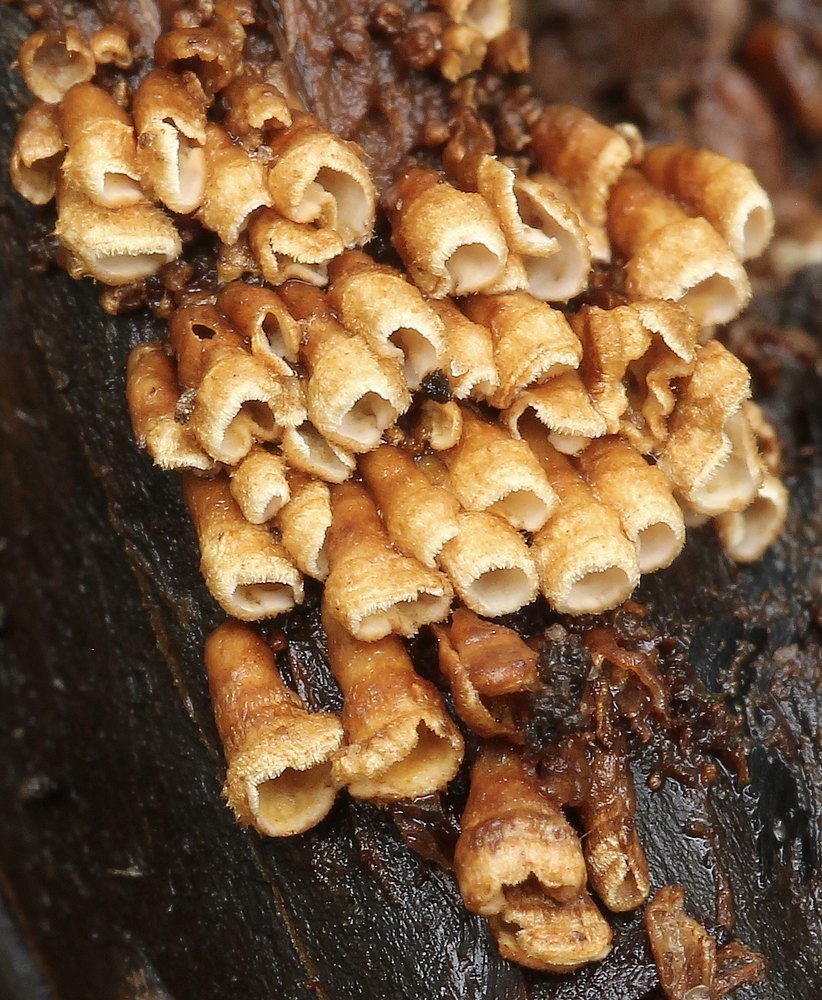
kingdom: Fungi
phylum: Basidiomycota
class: Agaricomycetes
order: Agaricales
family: Niaceae
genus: Woldmaria
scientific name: Woldmaria filicina
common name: bregnerør
